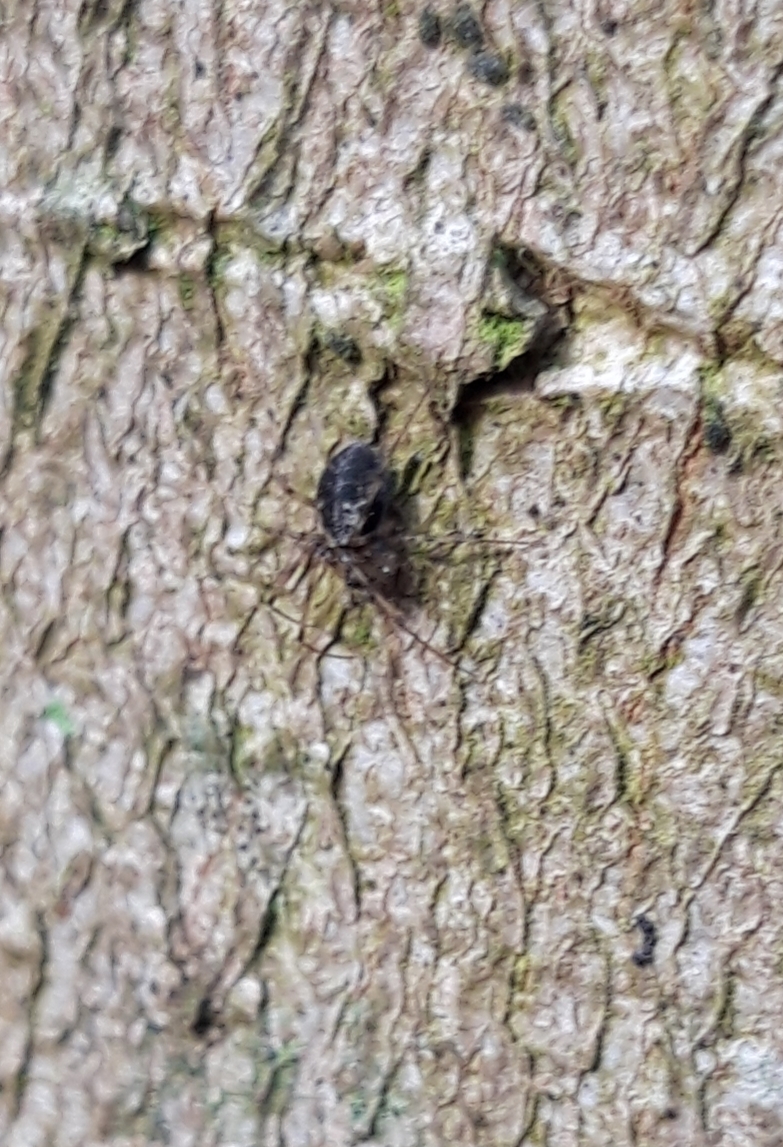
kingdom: Animalia
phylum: Arthropoda
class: Arachnida
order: Araneae
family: Linyphiidae
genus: Drapetisca
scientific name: Drapetisca socialis
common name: Barkjæger
